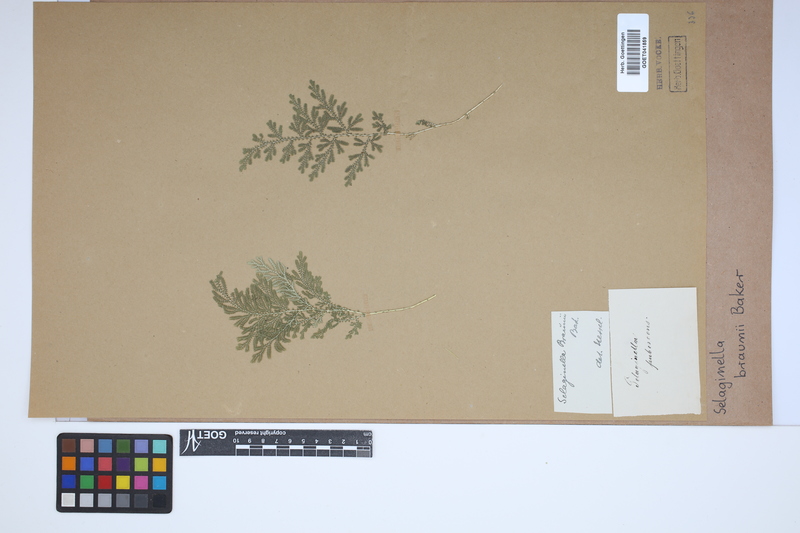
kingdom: Plantae
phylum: Tracheophyta
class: Lycopodiopsida
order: Selaginellales
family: Selaginellaceae
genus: Selaginella
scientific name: Selaginella braunii
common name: Braun's spikemoss
